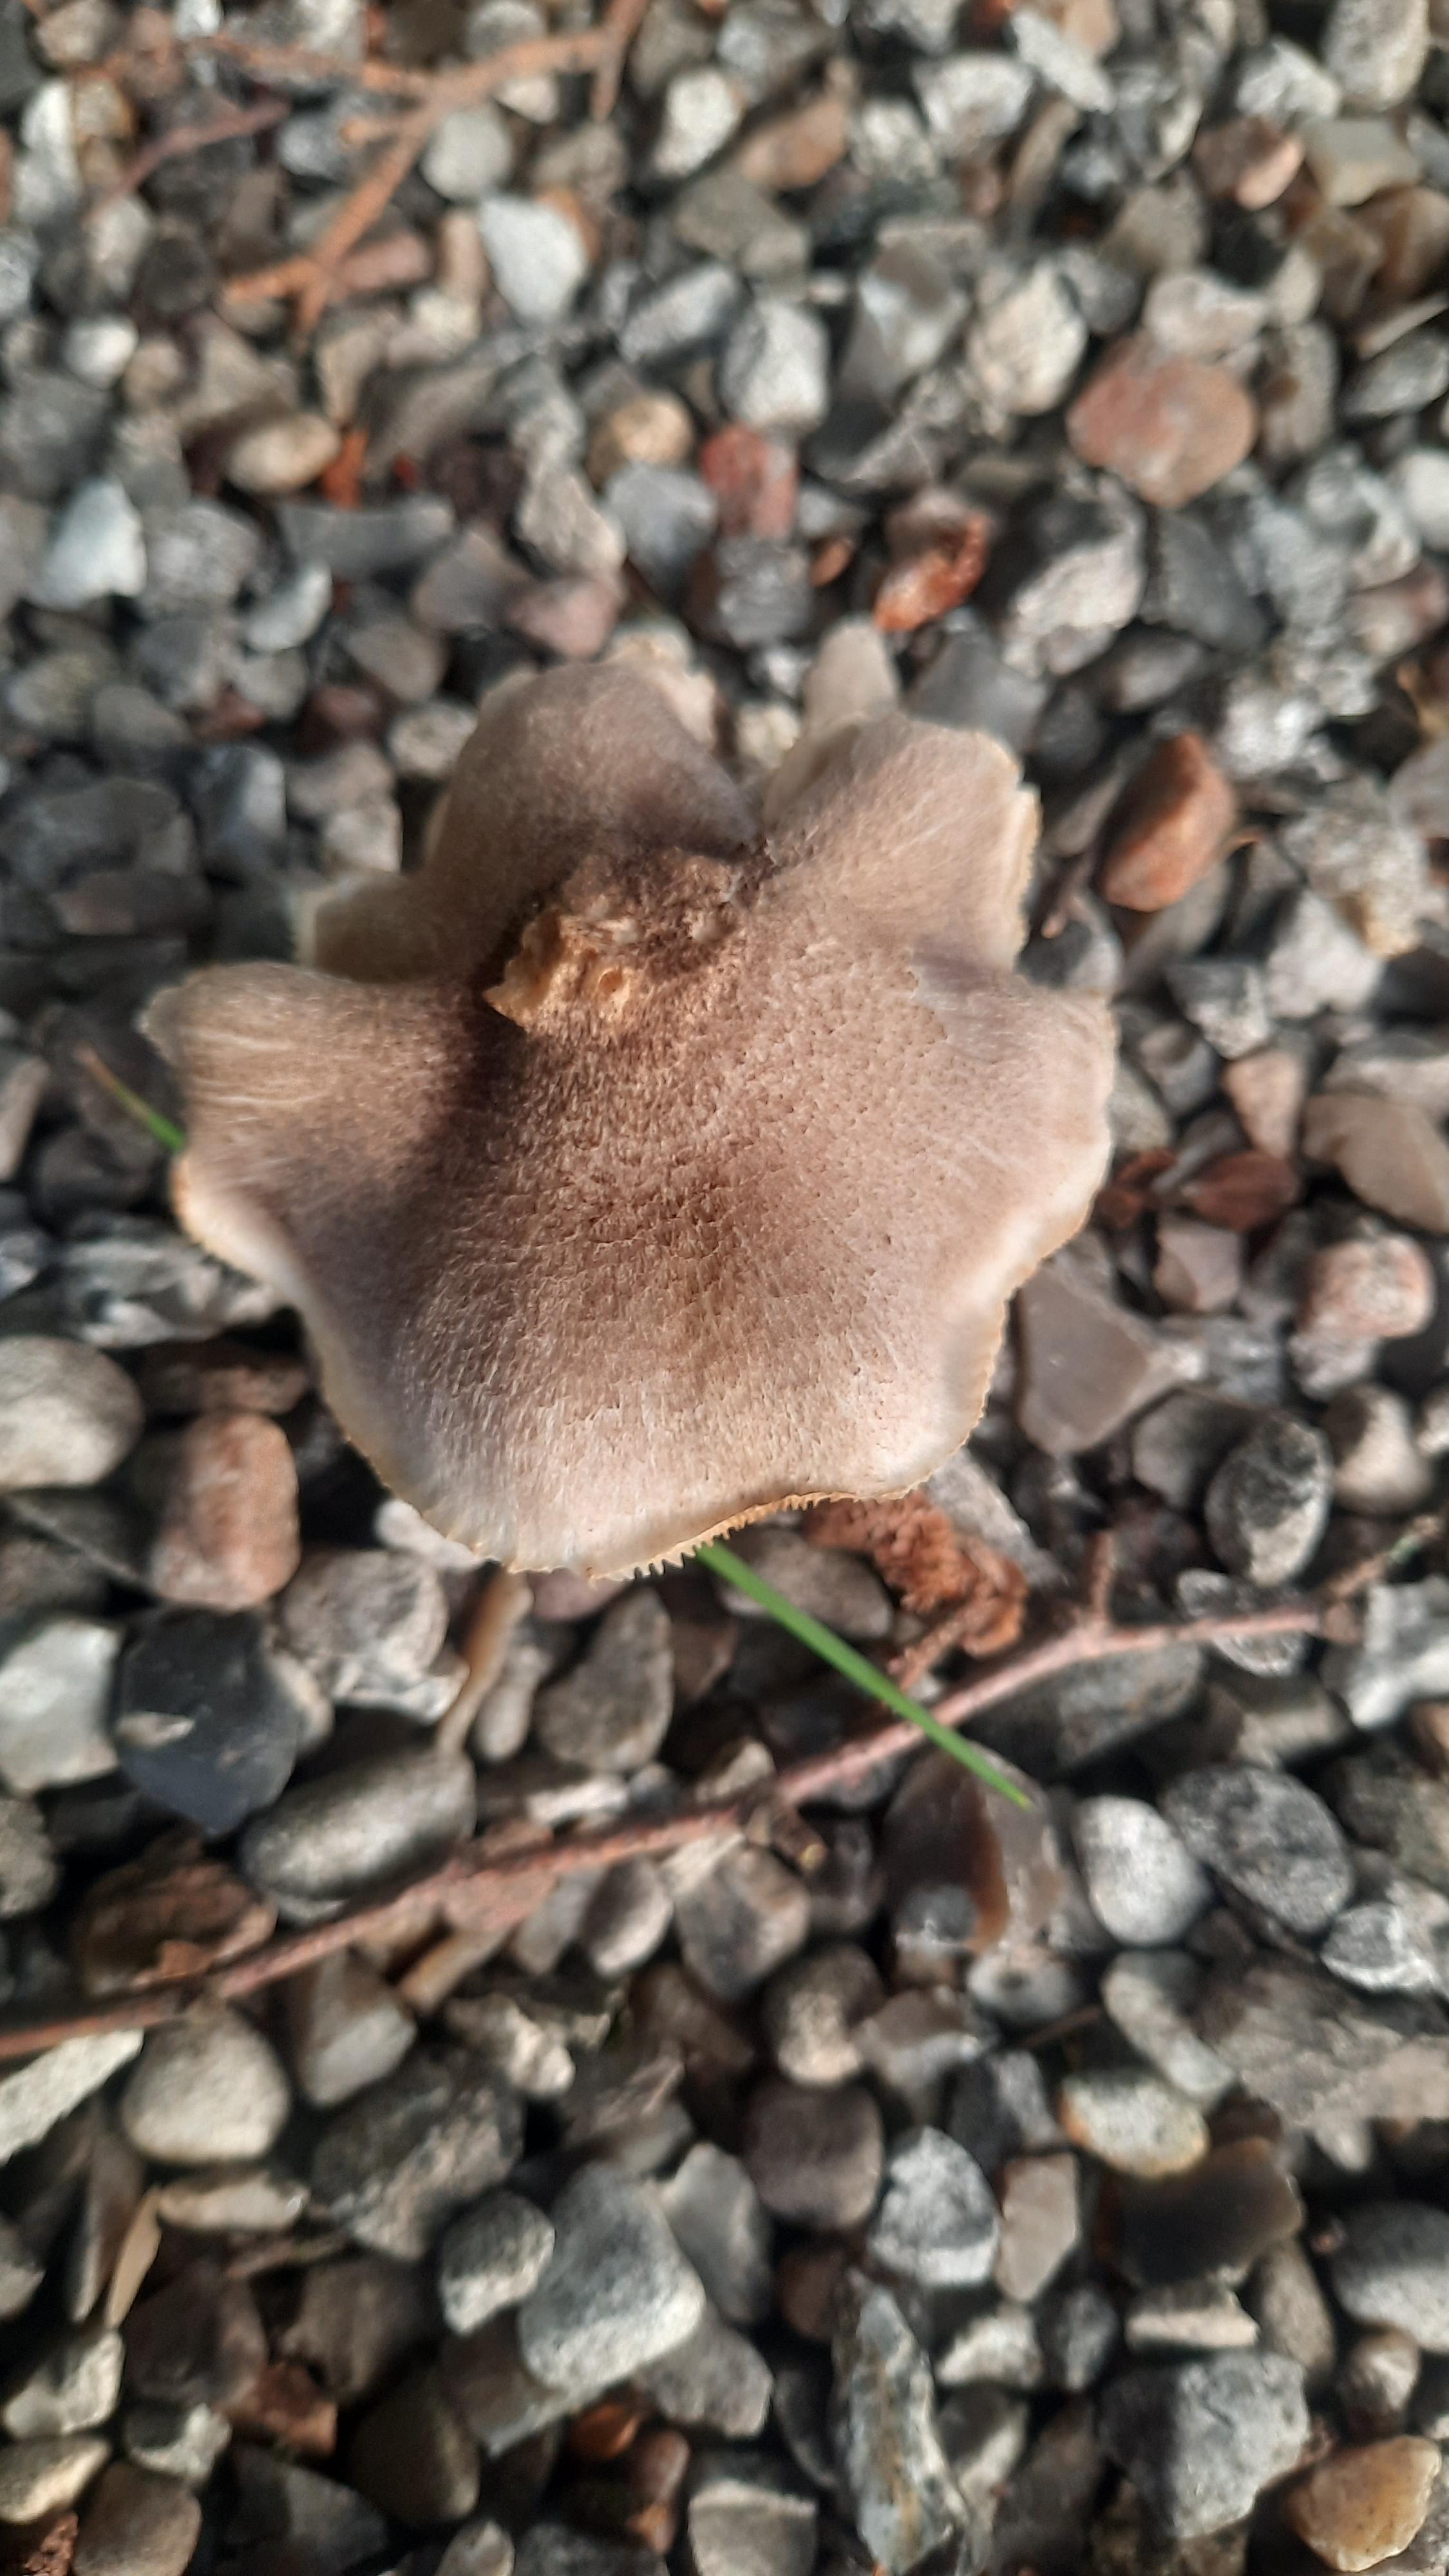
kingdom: Fungi
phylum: Basidiomycota
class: Agaricomycetes
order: Agaricales
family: Tricholomataceae
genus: Tricholoma
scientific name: Tricholoma scalpturatum
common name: gulplettet ridderhat
